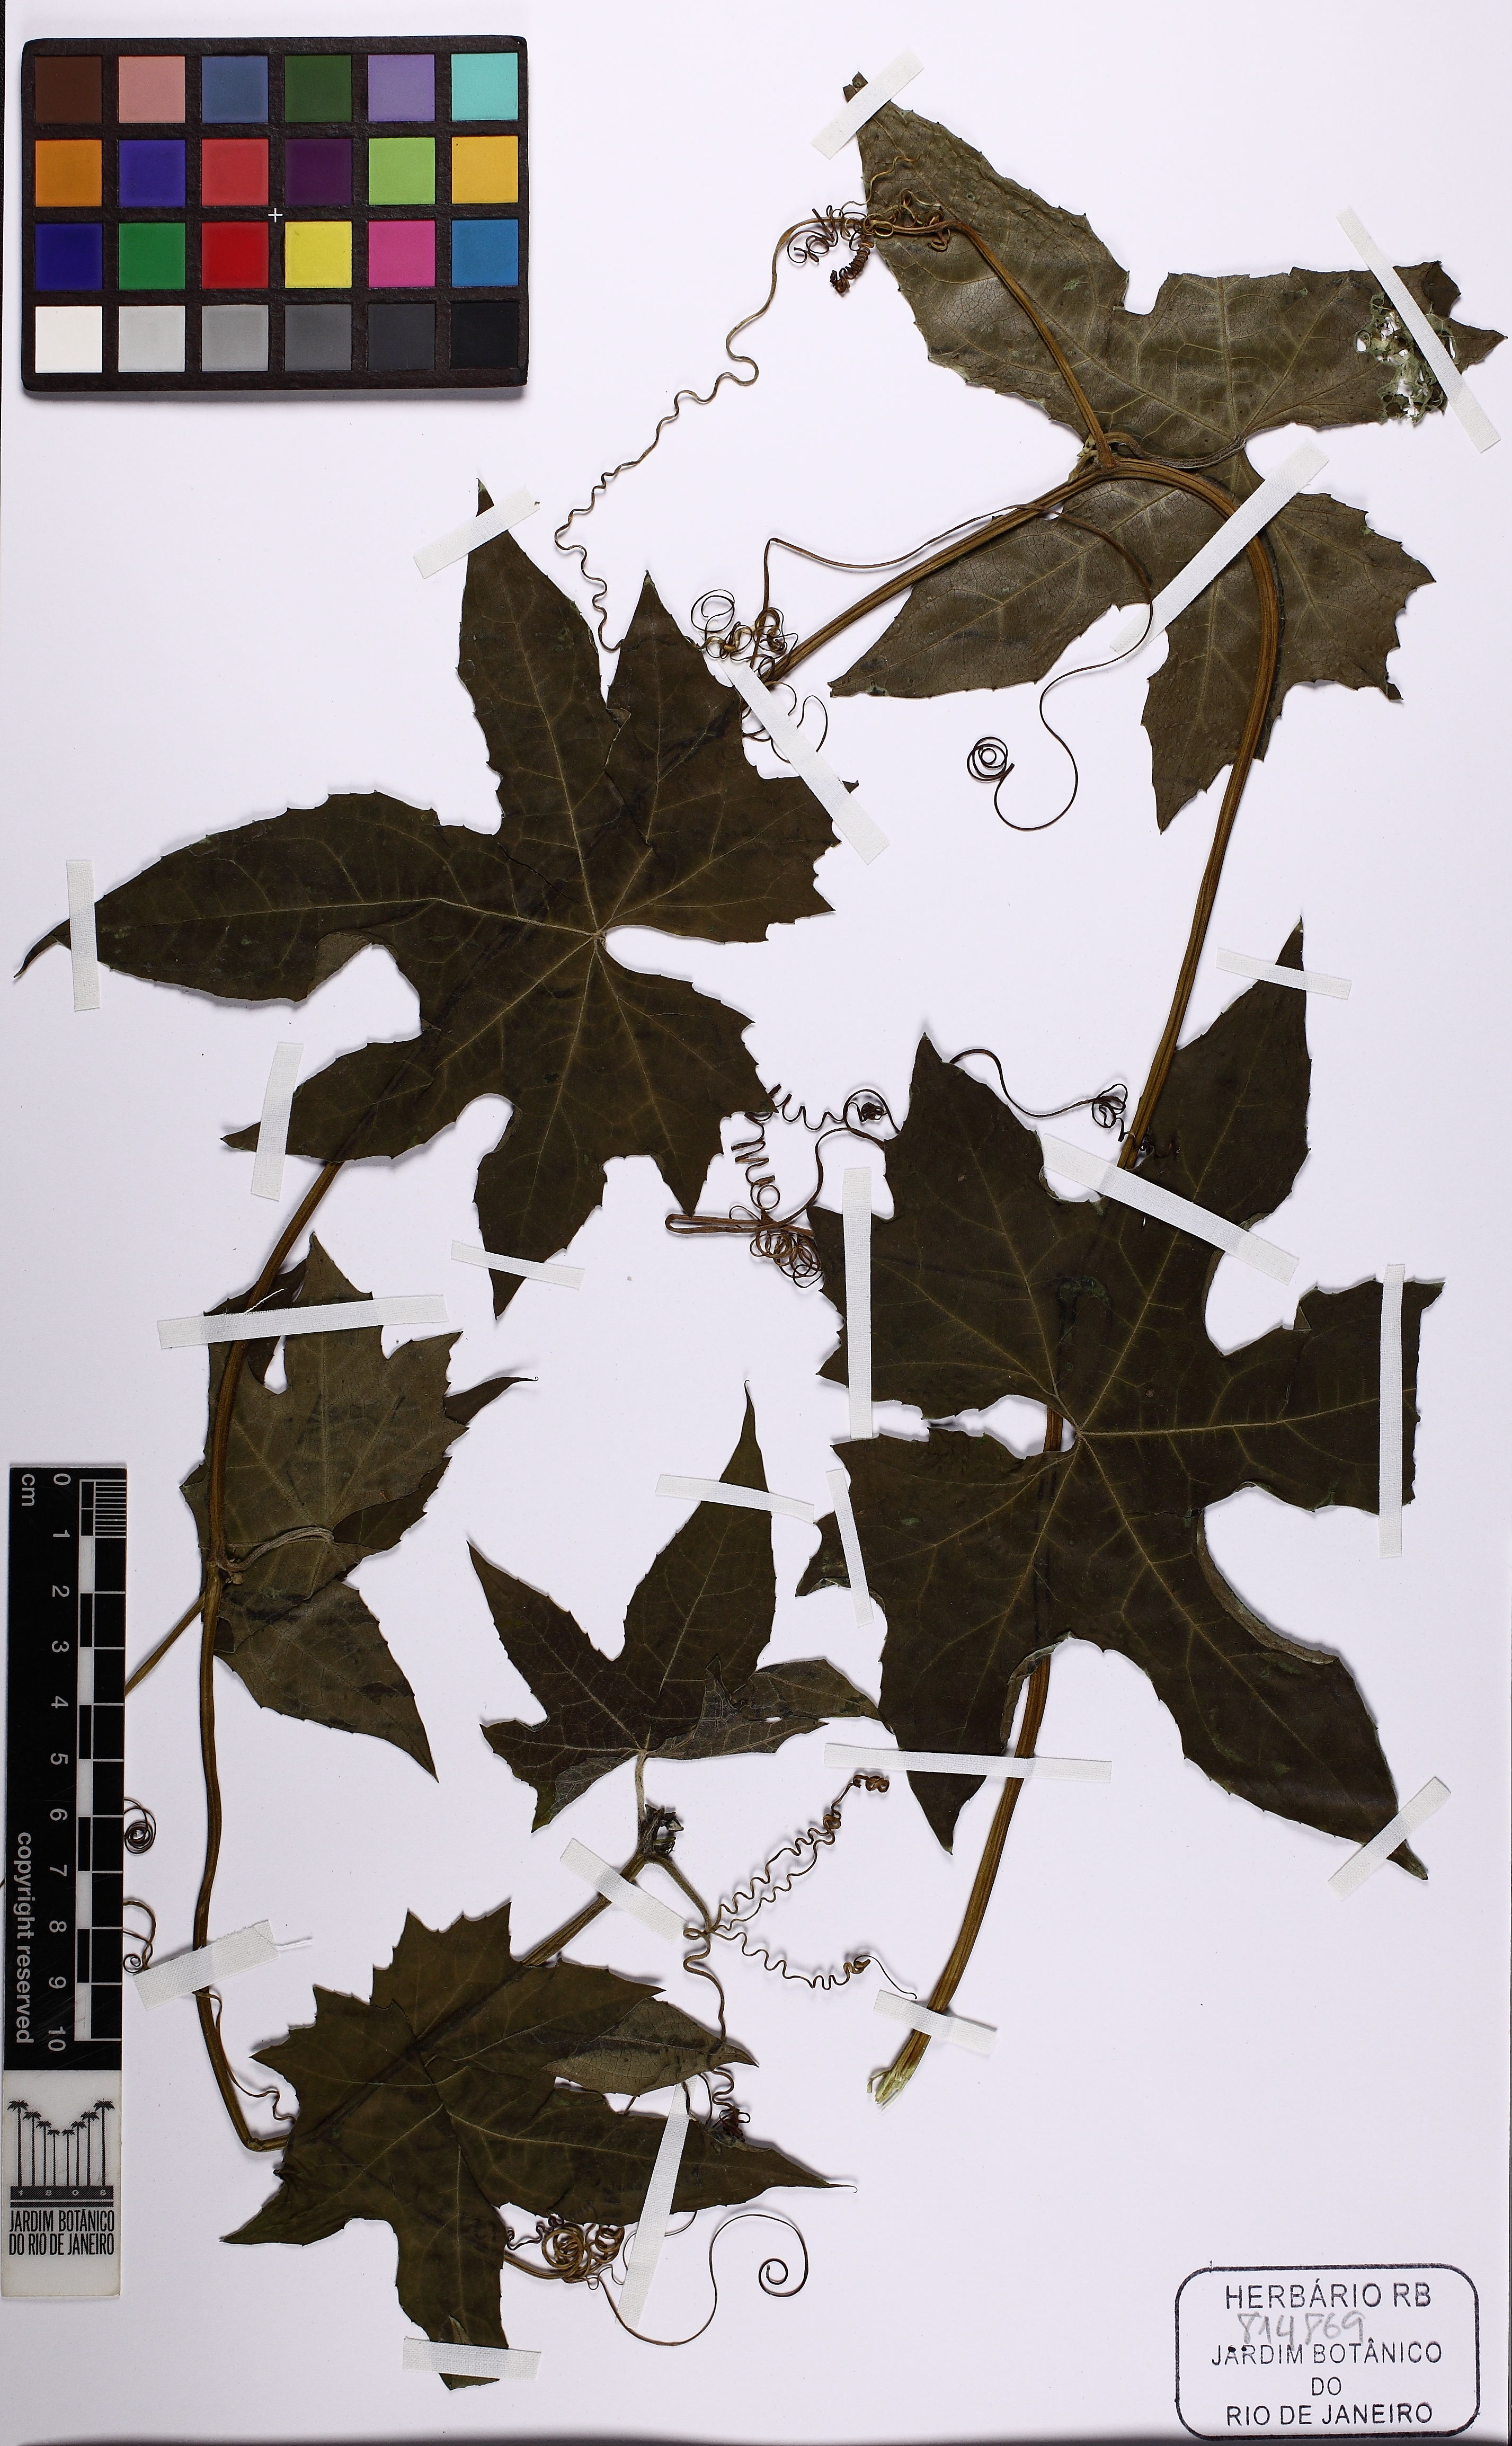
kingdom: Plantae
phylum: Tracheophyta
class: Magnoliopsida
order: Cucurbitales
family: Cucurbitaceae
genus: Luffa
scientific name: Luffa aegyptiaca
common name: Sponge gourd
